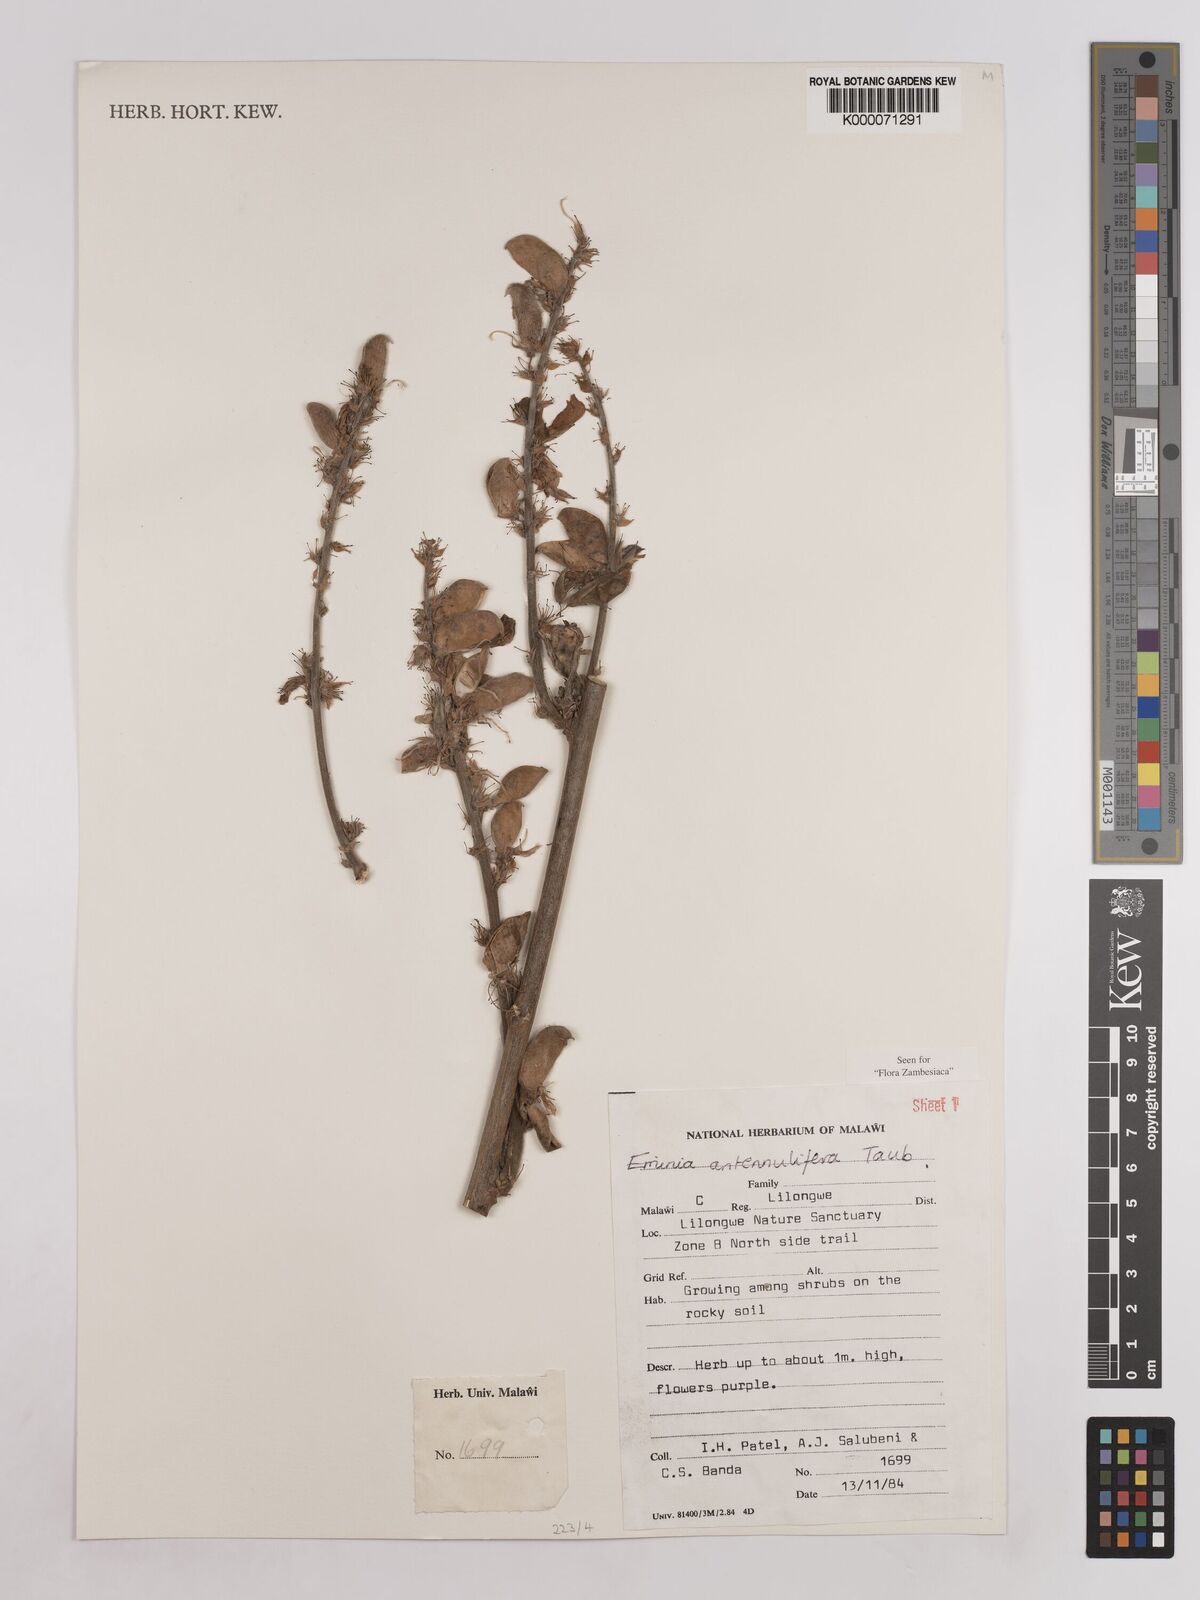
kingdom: Plantae
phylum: Tracheophyta
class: Magnoliopsida
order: Fabales
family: Fabaceae
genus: Eminia
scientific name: Eminia antennulifera
